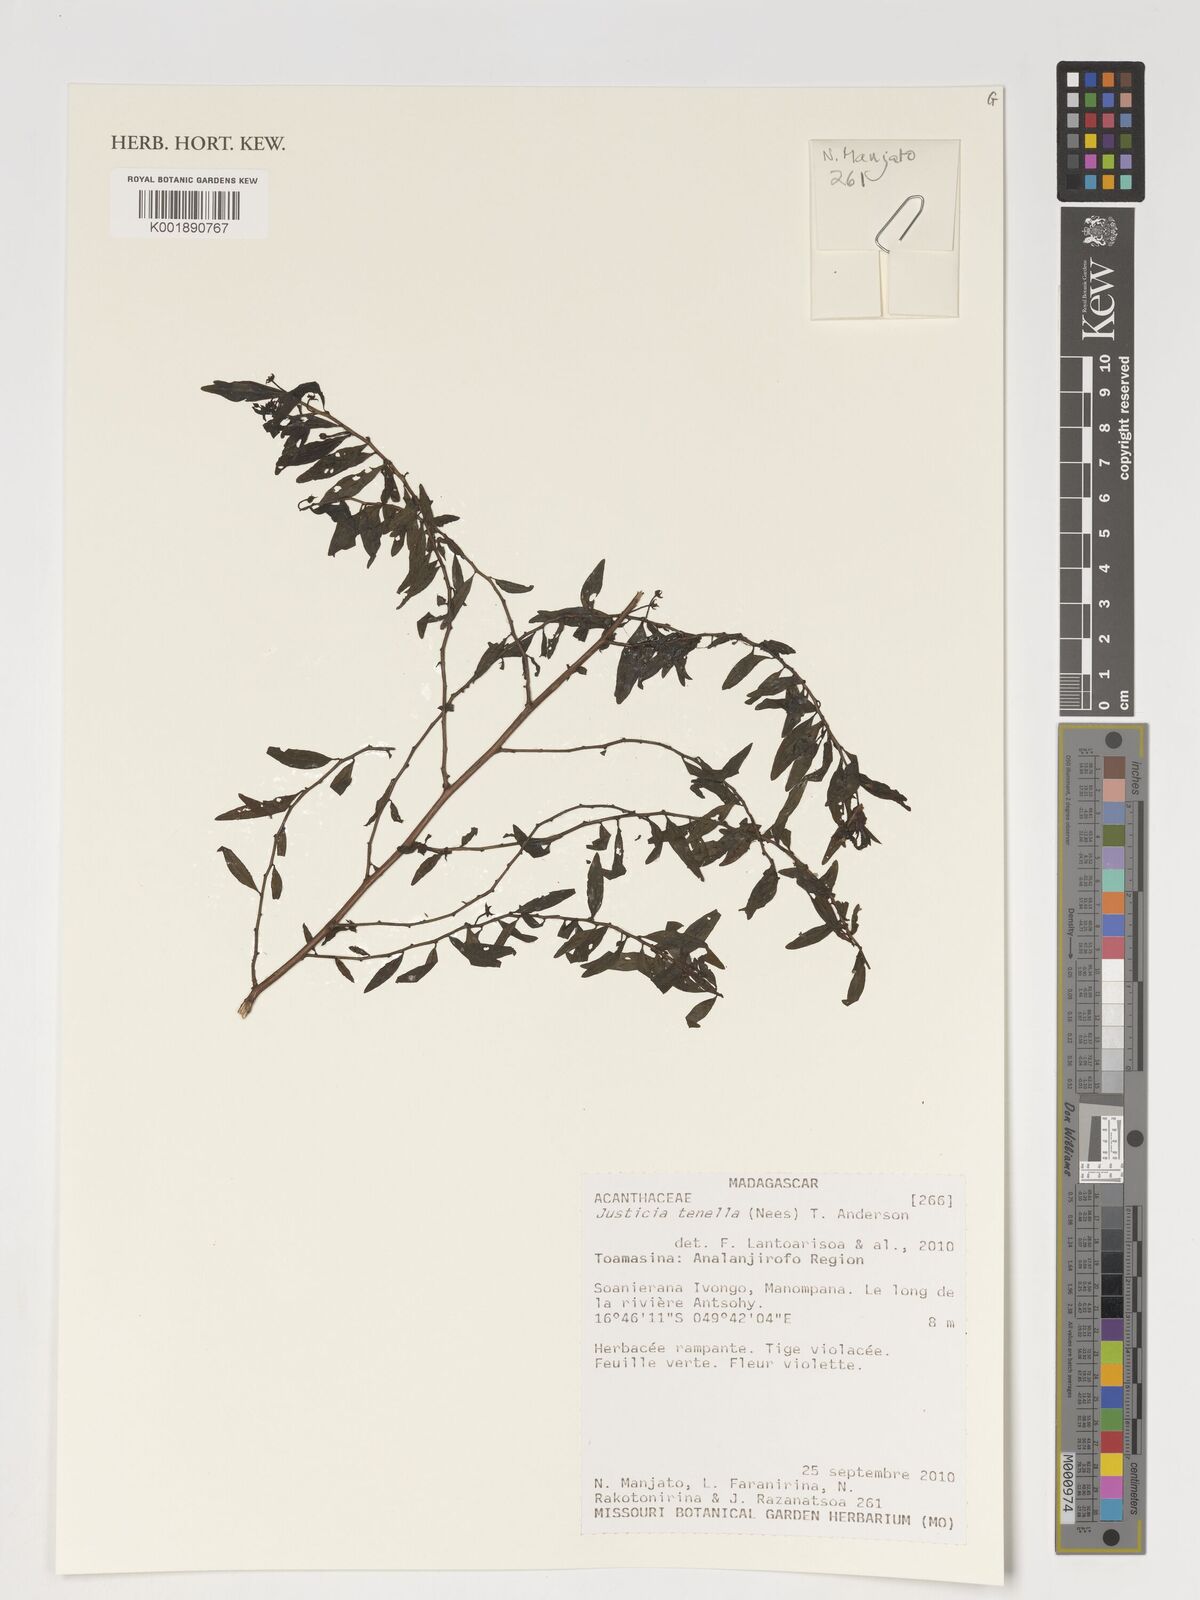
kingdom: Plantae
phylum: Tracheophyta
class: Magnoliopsida
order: Lamiales
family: Acanthaceae
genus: Anisostachya
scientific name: Anisostachya tenella
